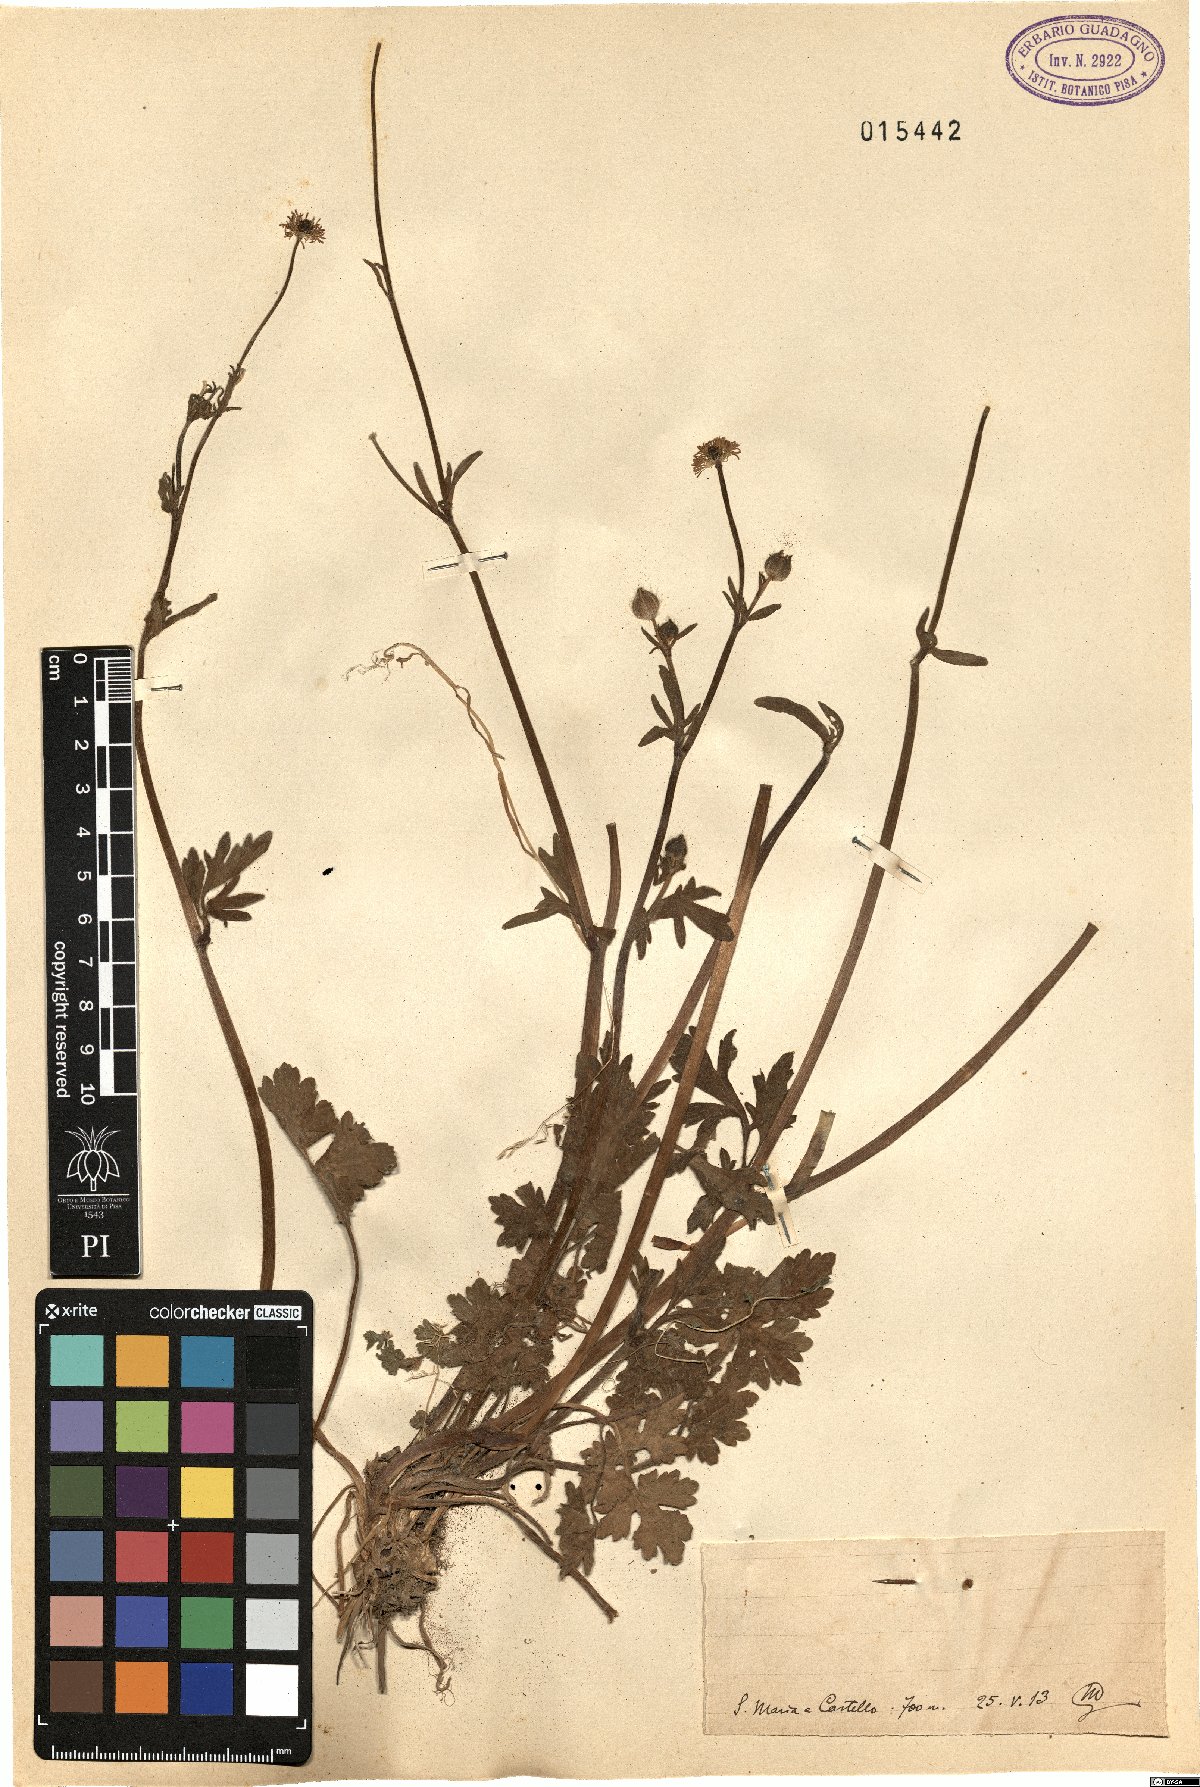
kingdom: Plantae
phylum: Tracheophyta
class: Magnoliopsida
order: Ranunculales
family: Ranunculaceae
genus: Ranunculus
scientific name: Ranunculus
